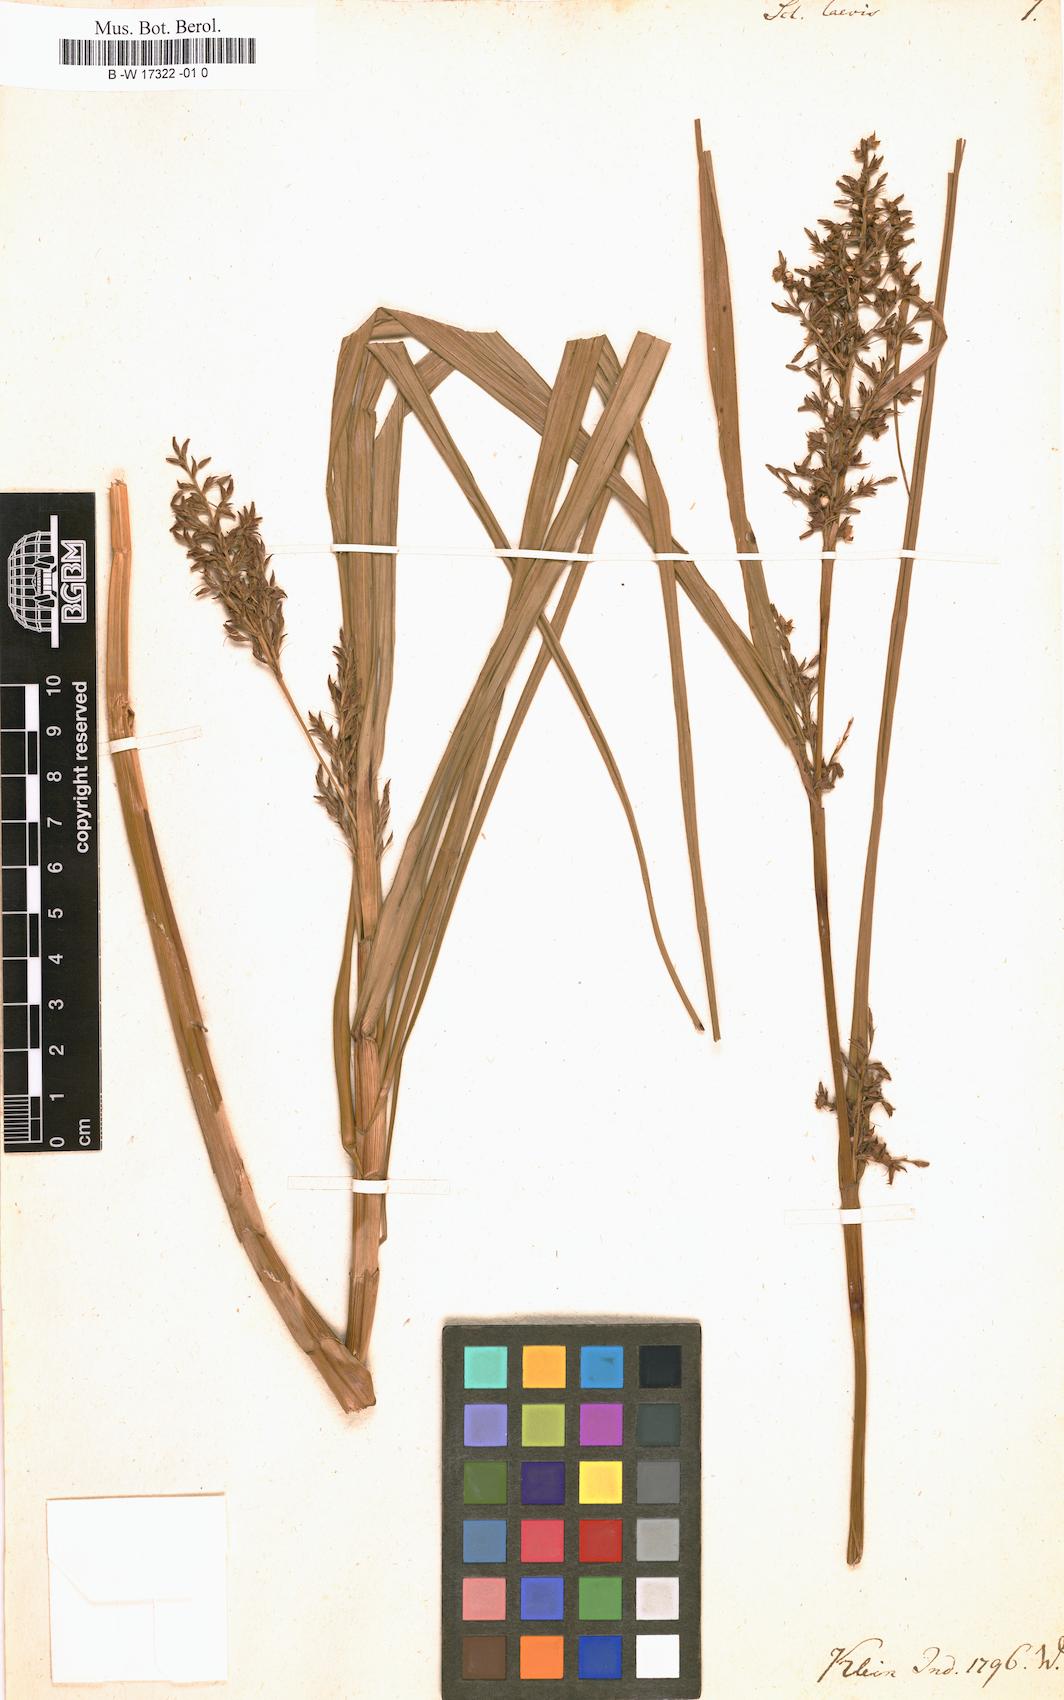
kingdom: Plantae
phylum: Tracheophyta
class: Liliopsida
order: Poales
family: Cyperaceae
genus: Scleria
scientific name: Scleria laevis
